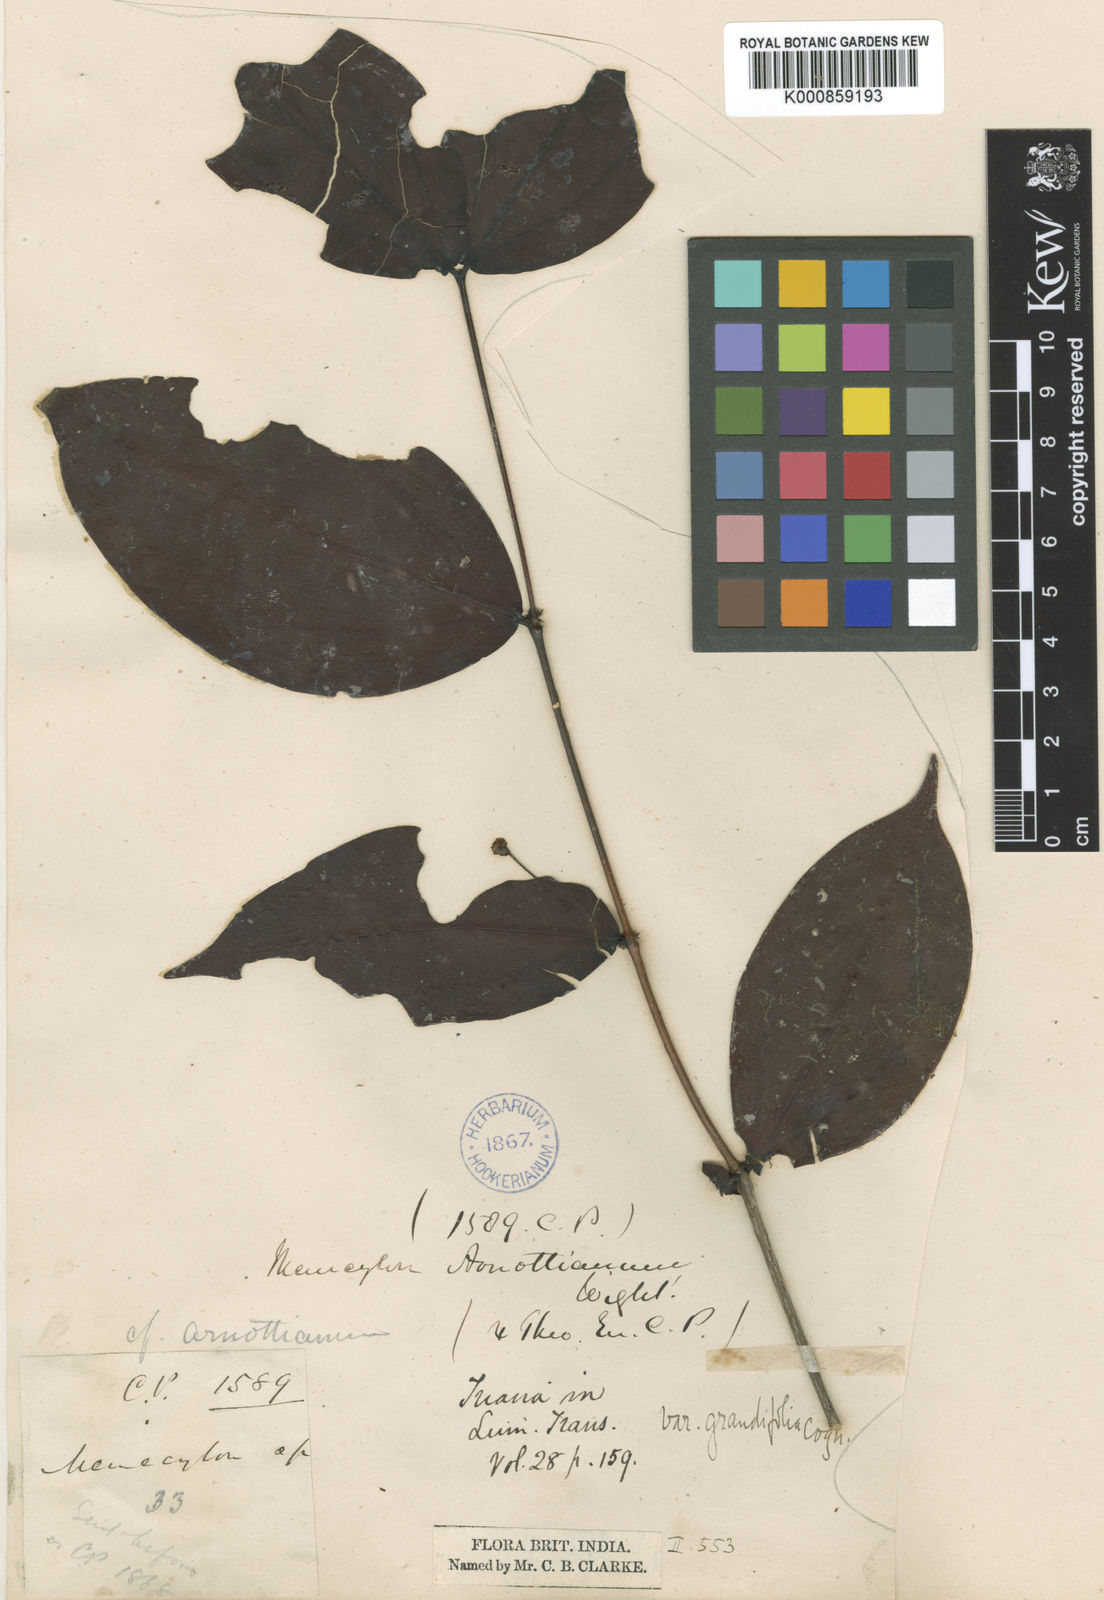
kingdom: Plantae
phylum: Tracheophyta
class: Magnoliopsida
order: Myrtales
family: Melastomataceae
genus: Lijndenia
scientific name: Lijndenia capitellata
